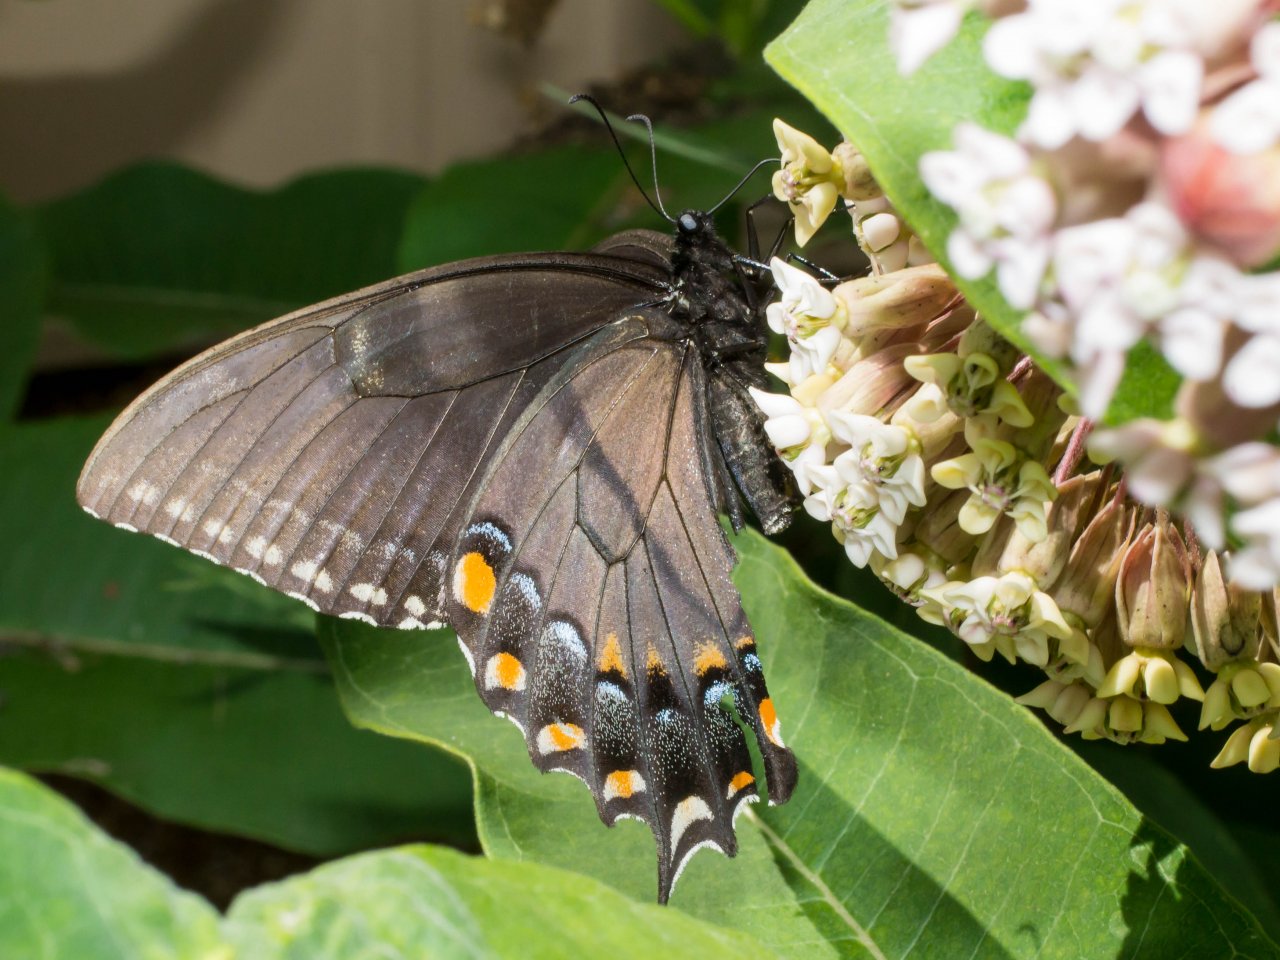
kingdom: Animalia
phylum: Arthropoda
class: Insecta
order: Lepidoptera
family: Papilionidae
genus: Pterourus
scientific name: Pterourus glaucus
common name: Eastern Tiger Swallowtail
